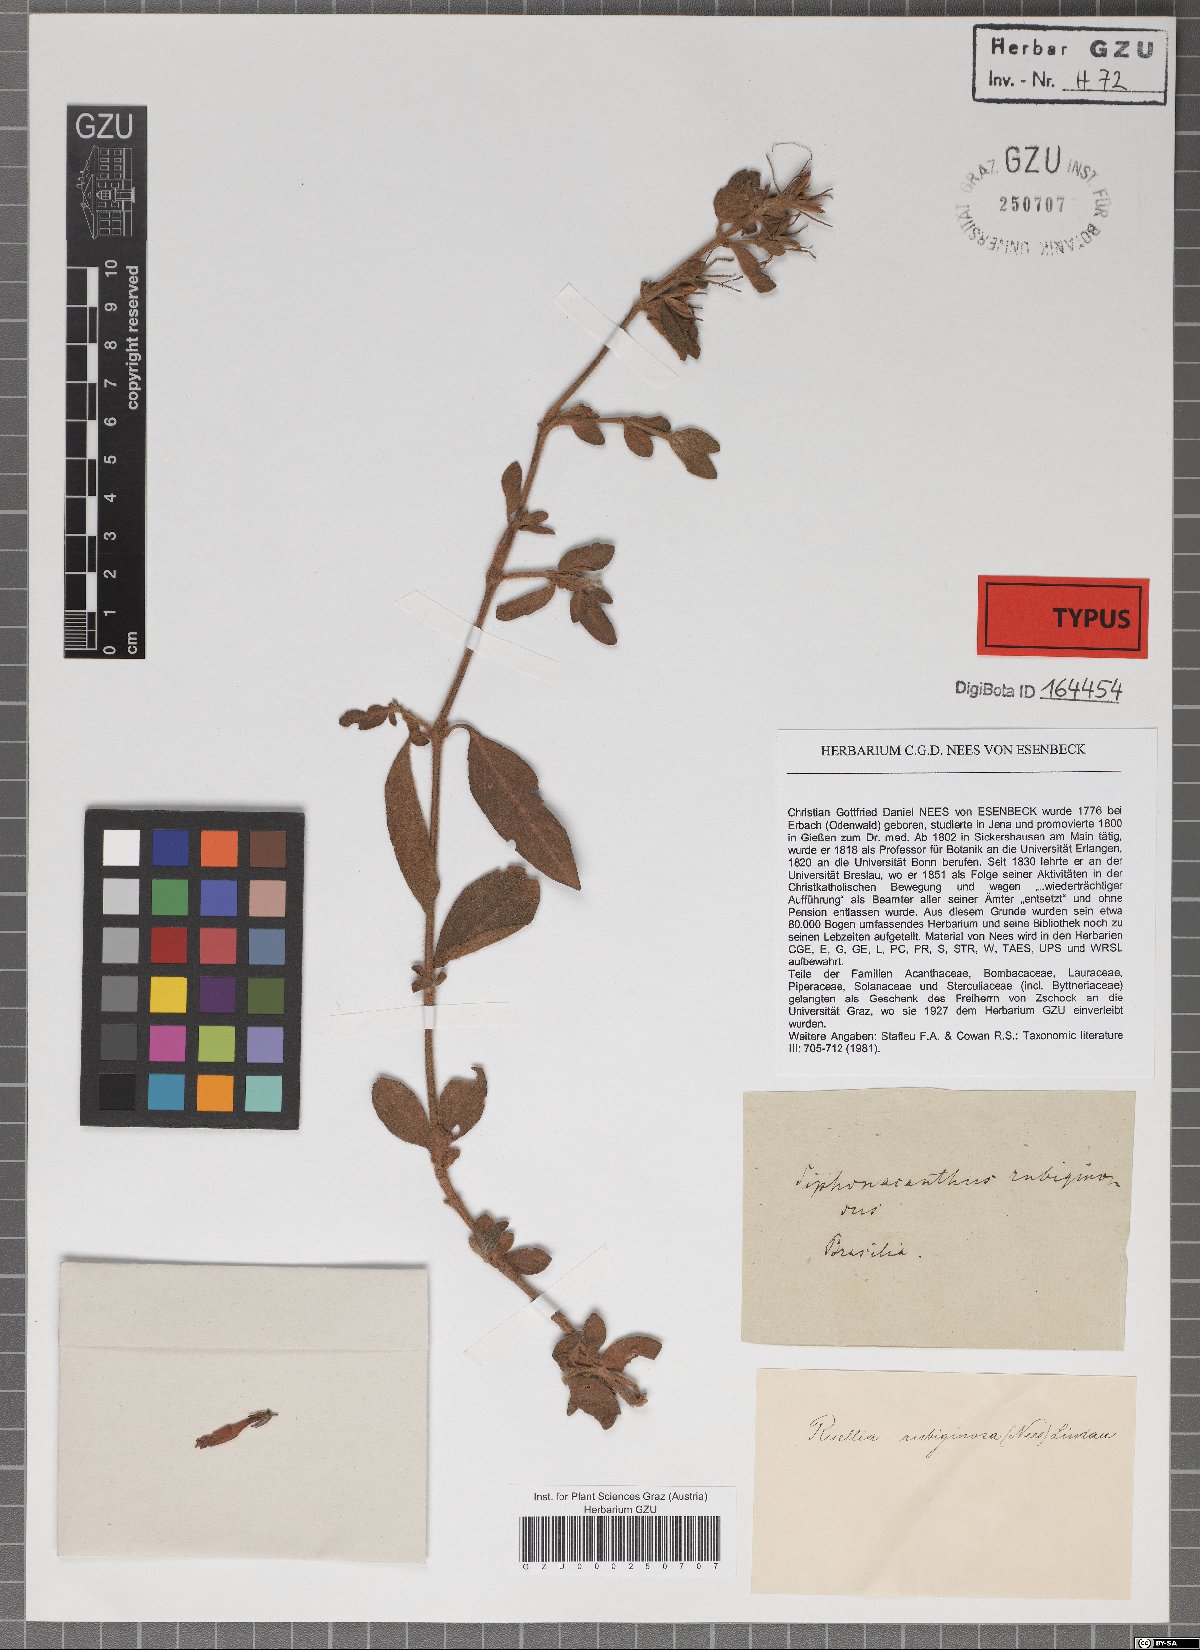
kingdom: Plantae
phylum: Tracheophyta
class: Magnoliopsida
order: Lamiales
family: Acanthaceae
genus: Ruellia
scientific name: Ruellia rubiginosa
